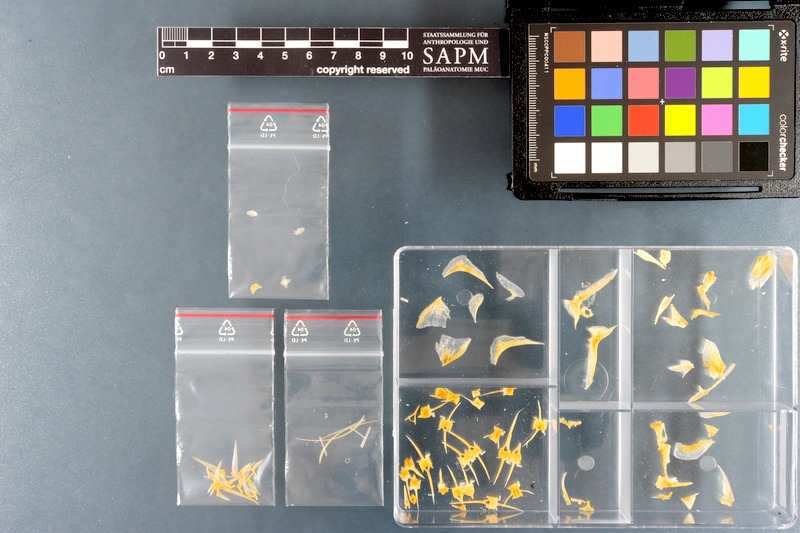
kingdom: Animalia
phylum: Chordata
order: Perciformes
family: Carangidae
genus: Alepes
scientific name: Alepes melanoptera
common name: Blackfin scad
